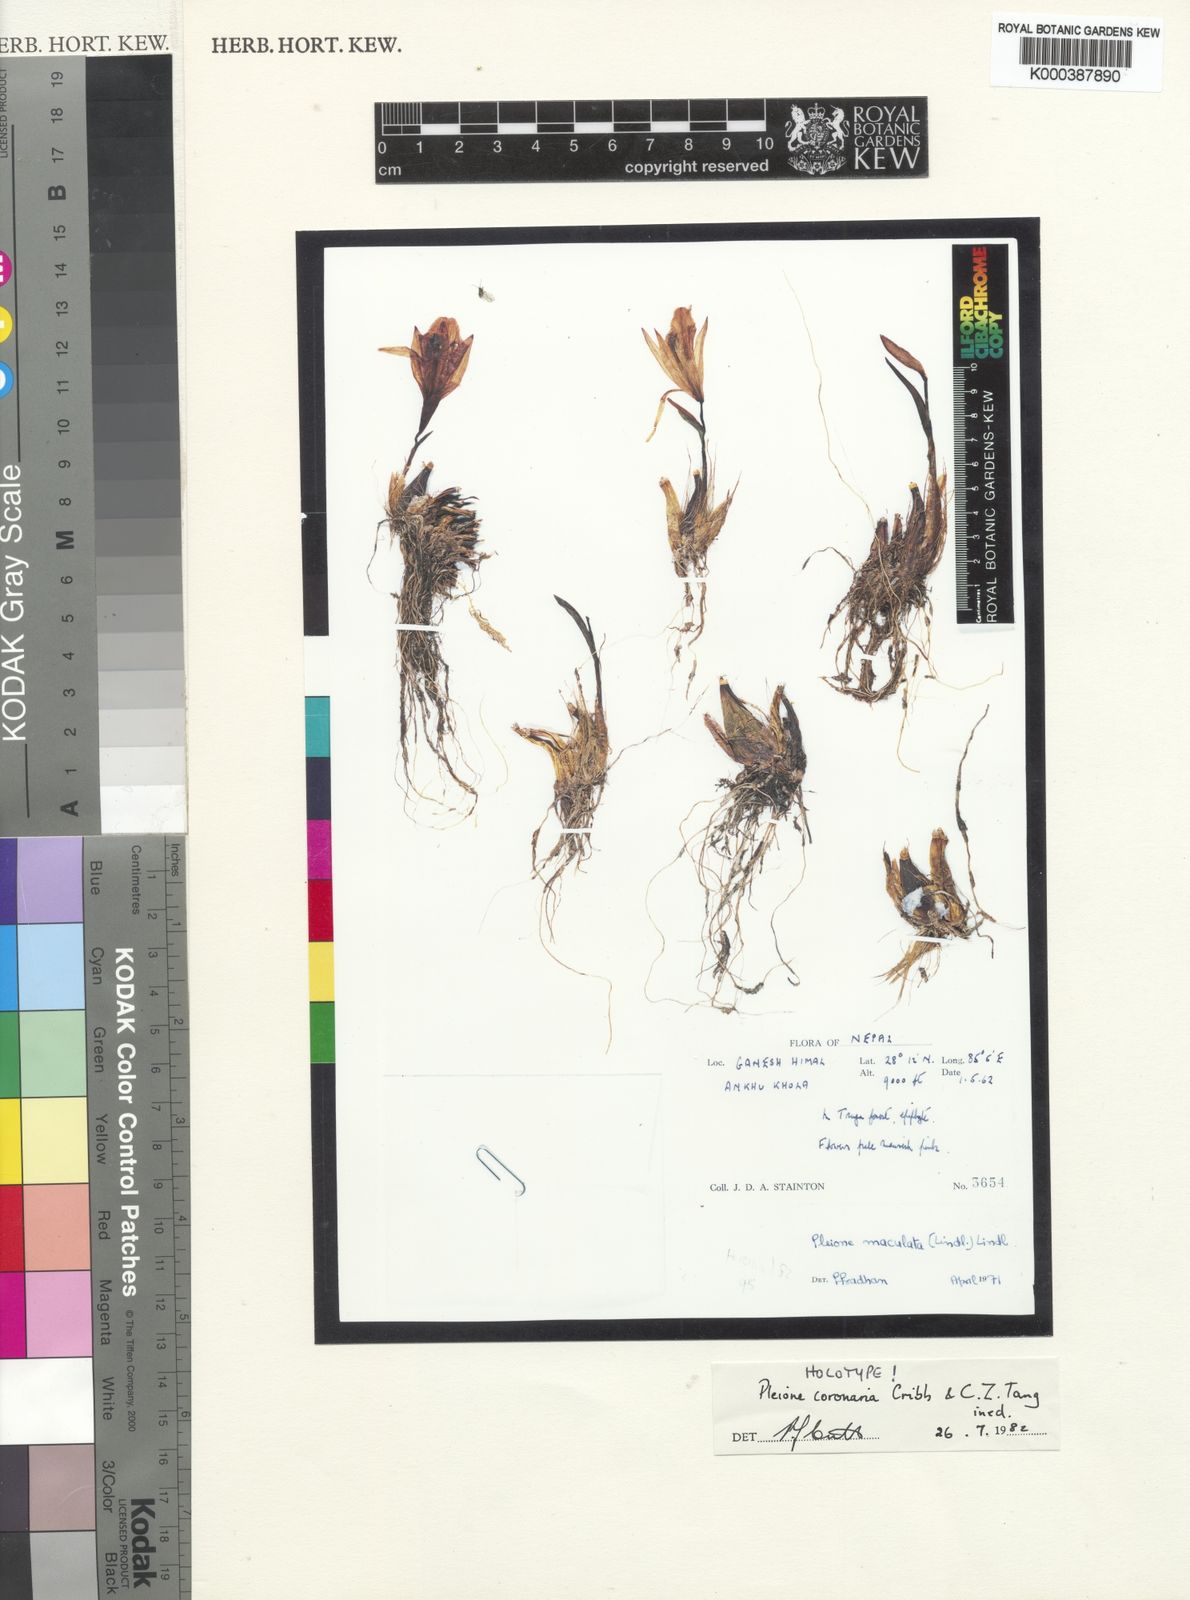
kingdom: Plantae
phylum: Tracheophyta
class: Liliopsida
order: Asparagales
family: Orchidaceae
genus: Pleione
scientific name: Pleione coronaria
